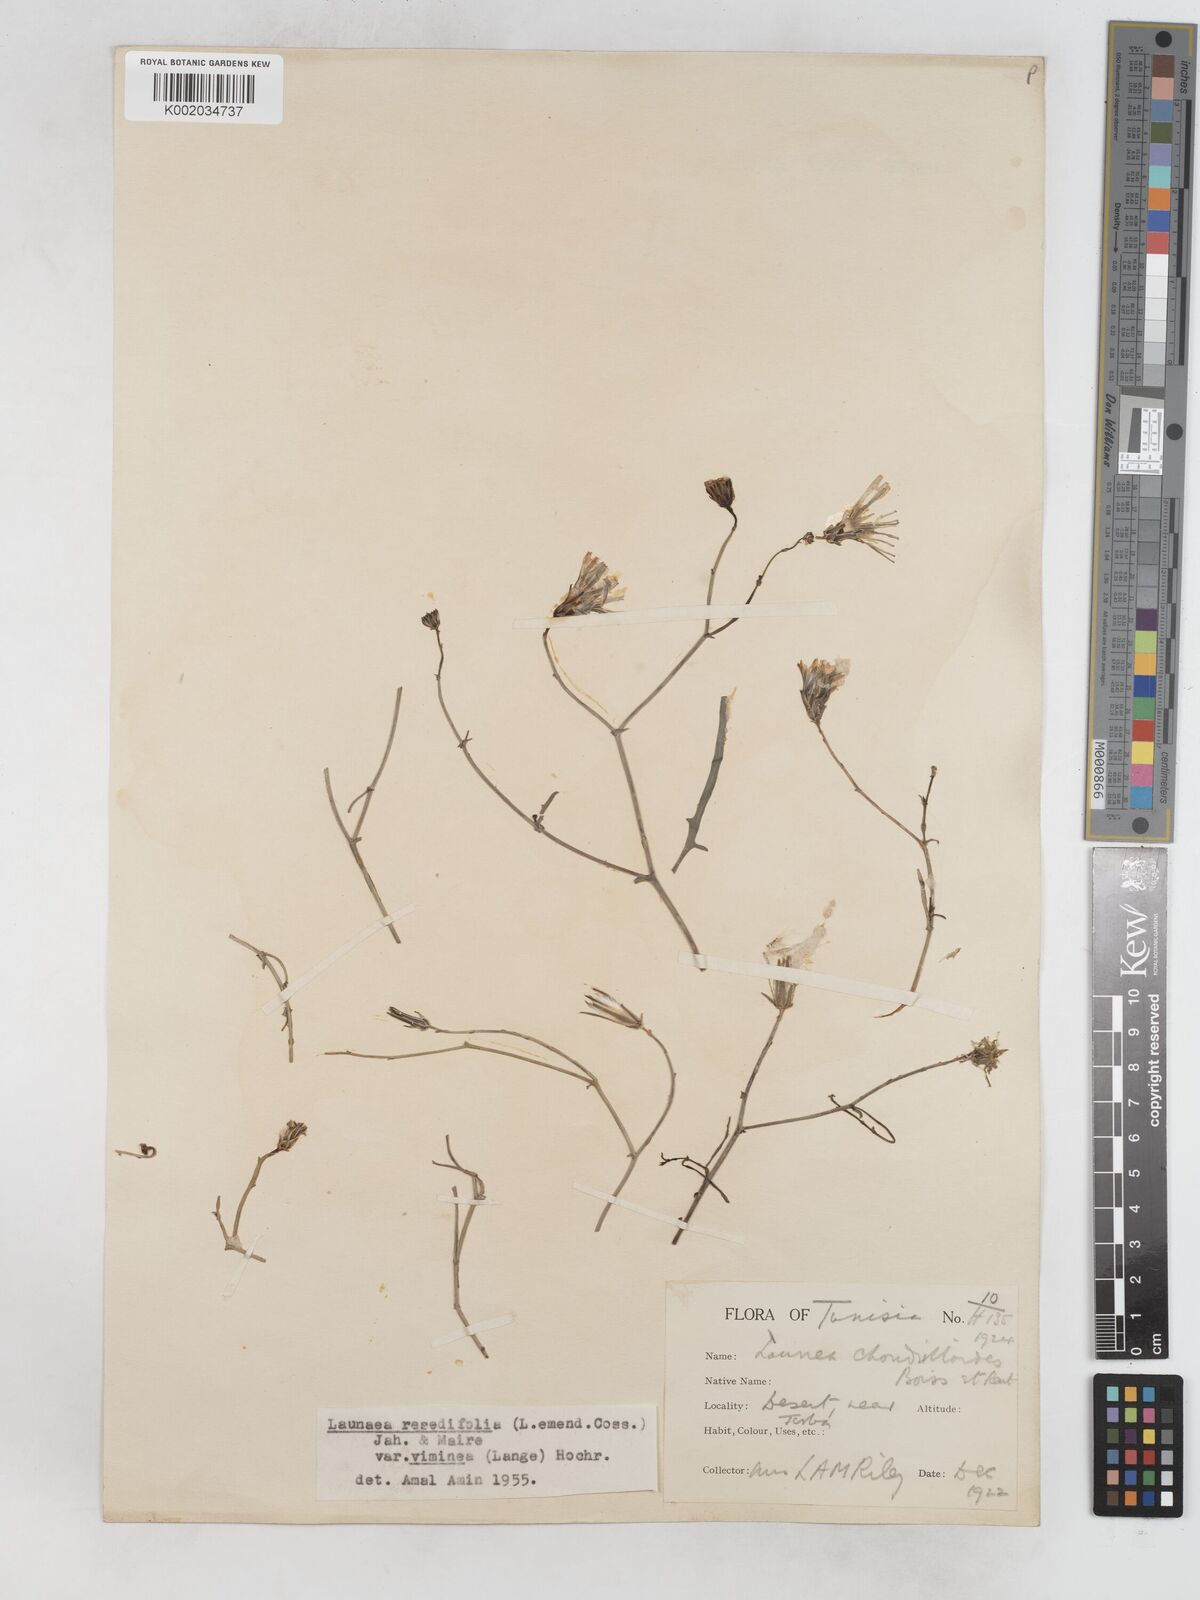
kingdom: Plantae
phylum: Tracheophyta
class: Magnoliopsida
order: Asterales
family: Asteraceae
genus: Launaea
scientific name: Launaea
